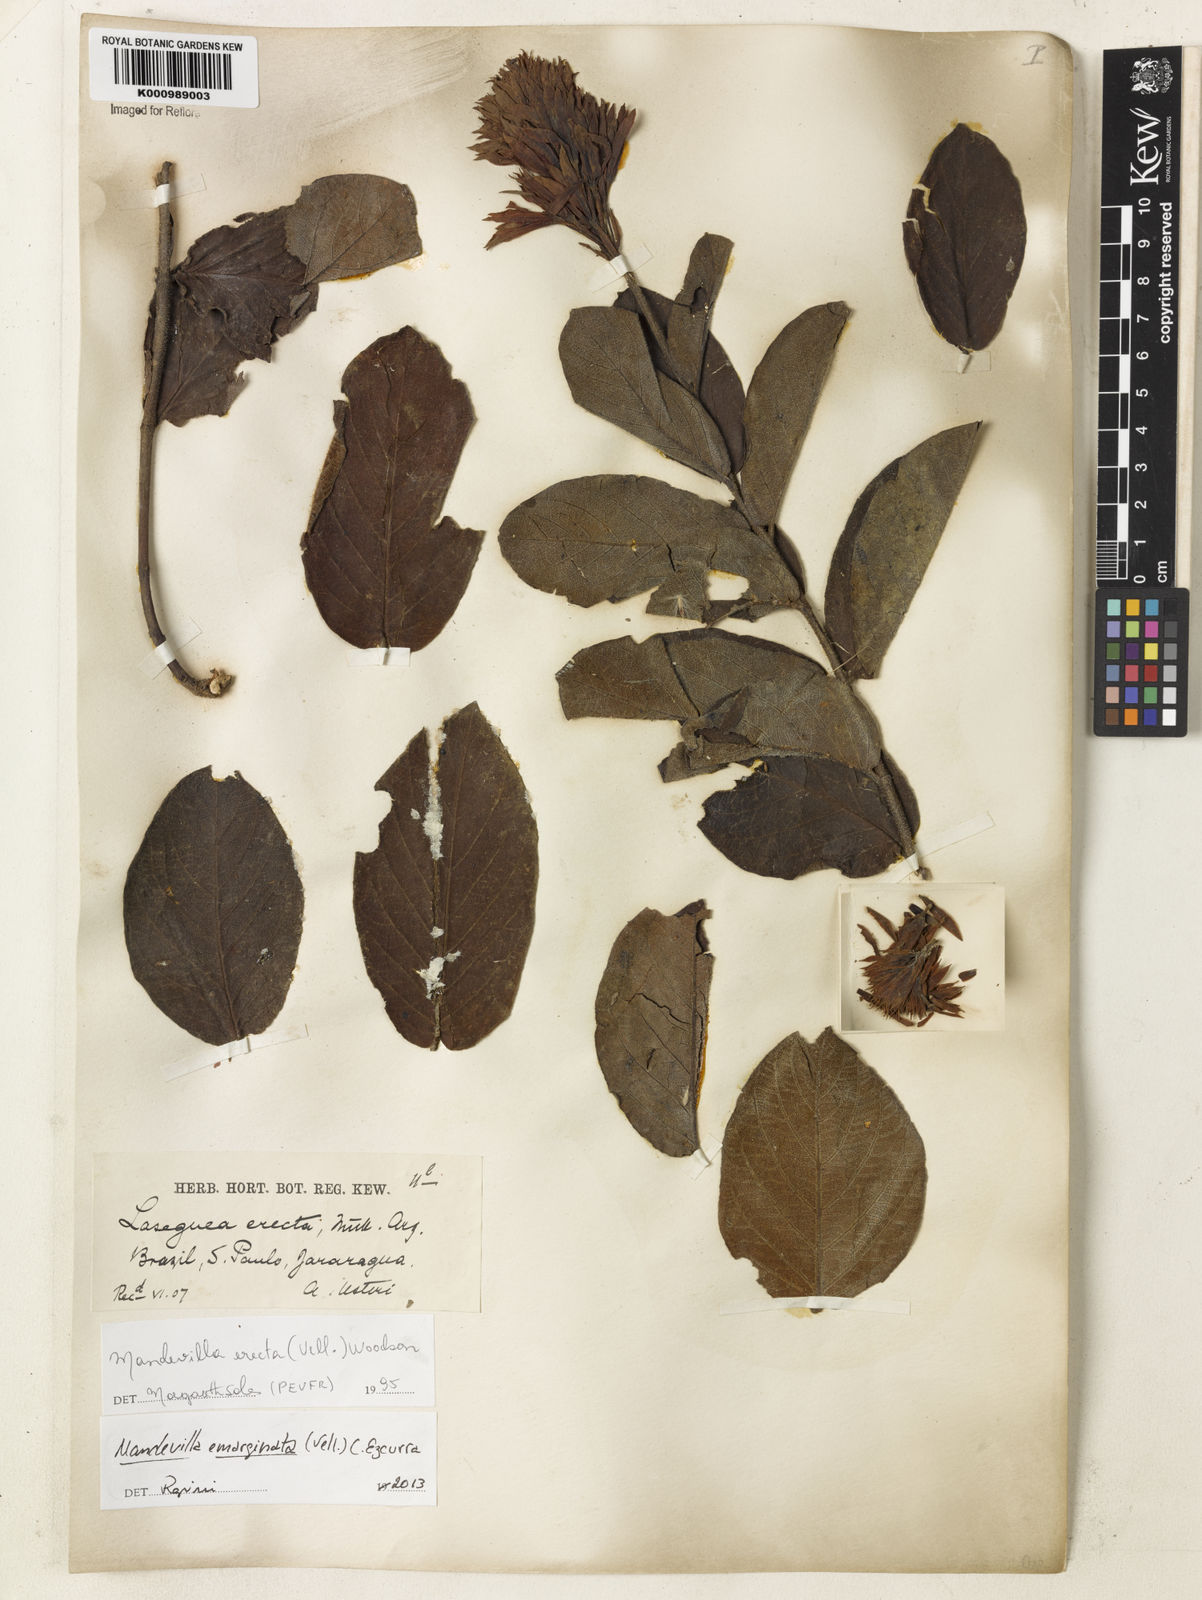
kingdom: Plantae
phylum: Tracheophyta
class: Magnoliopsida
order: Gentianales
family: Apocynaceae
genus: Mandevilla
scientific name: Mandevilla emarginata
